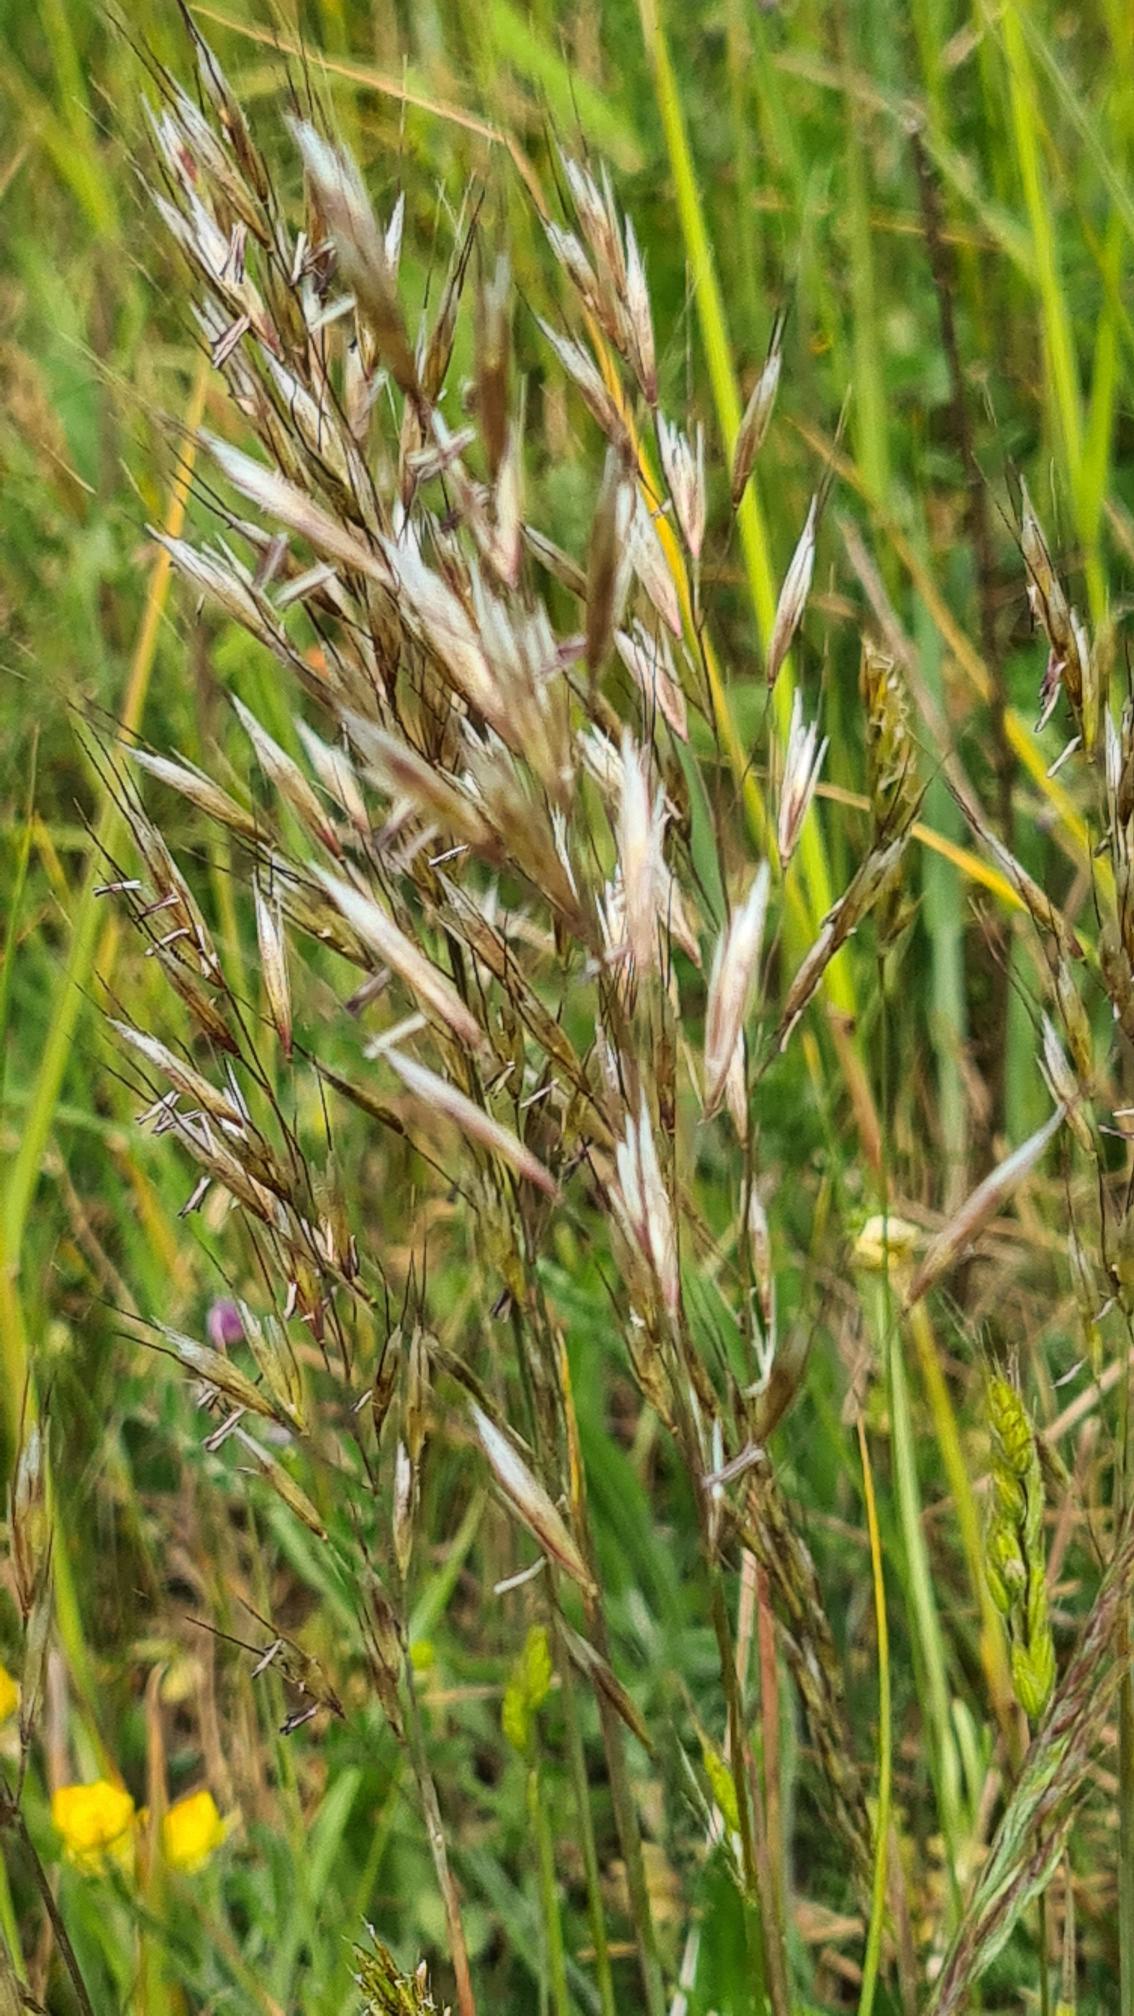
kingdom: Plantae
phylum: Tracheophyta
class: Liliopsida
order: Poales
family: Poaceae
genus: Avenula
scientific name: Avenula pubescens
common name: Dunet havre
